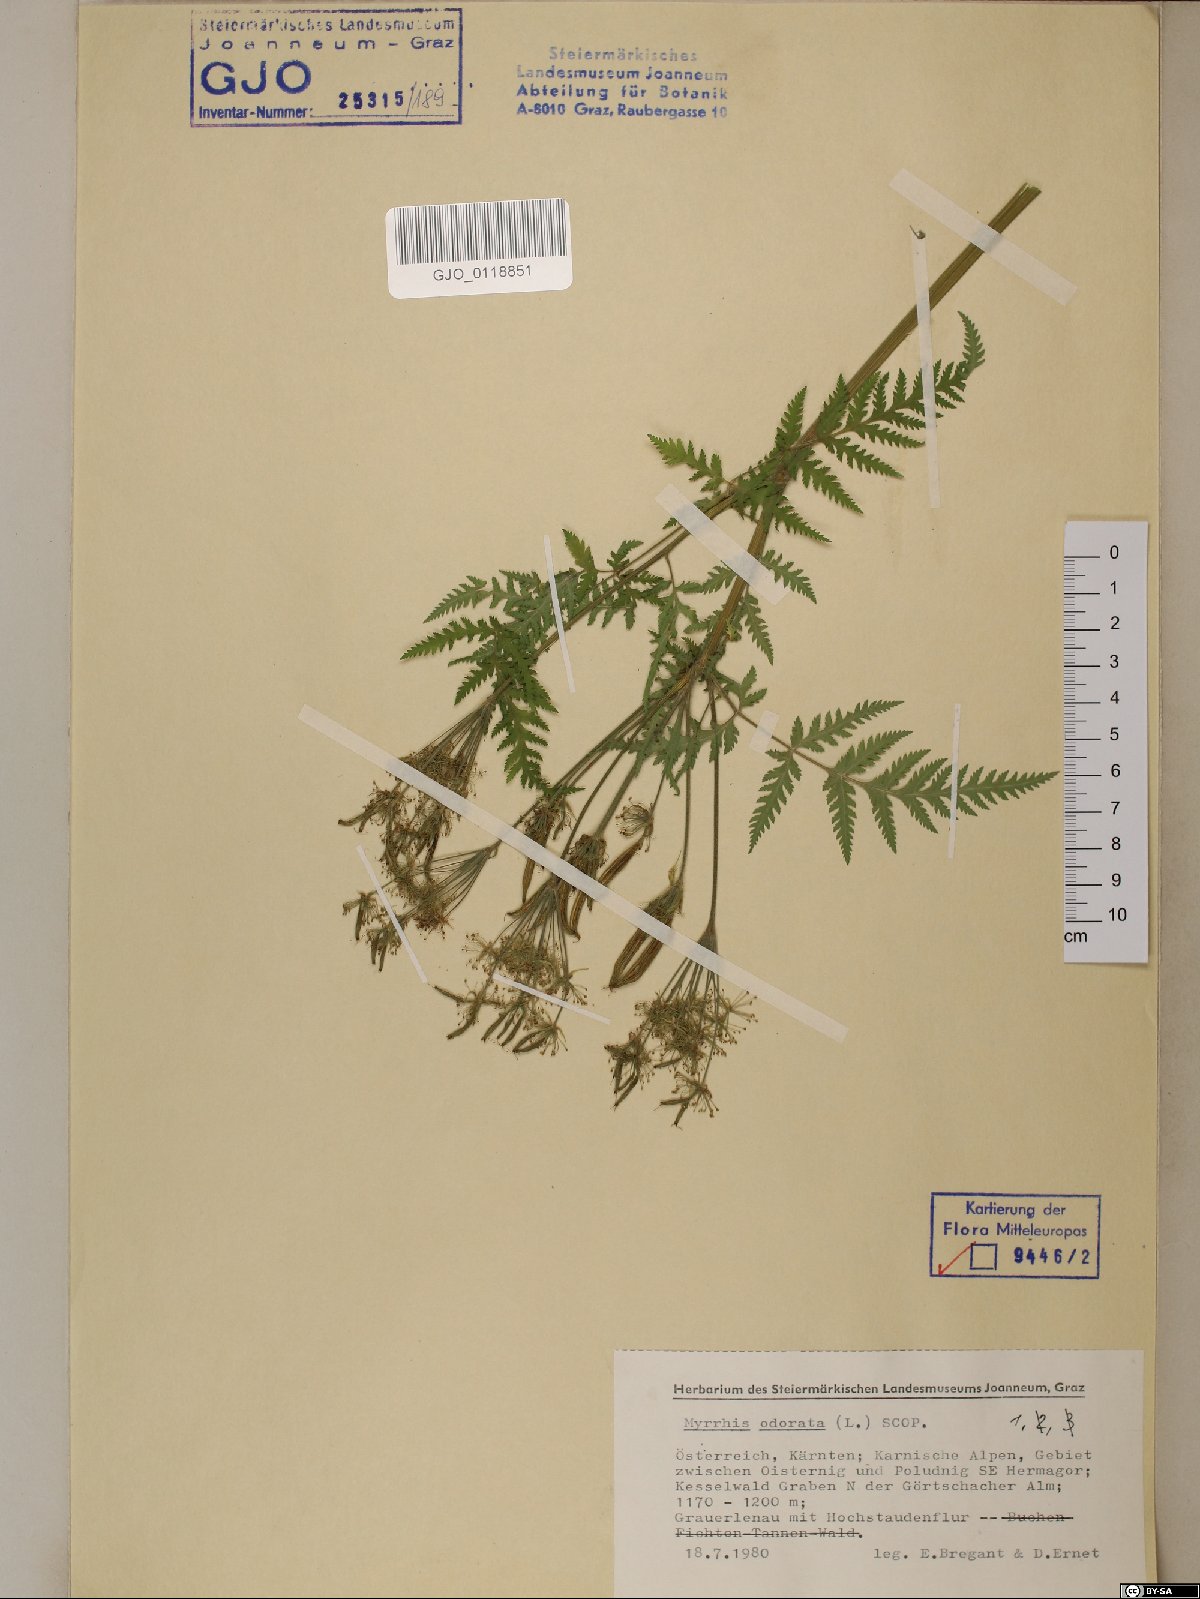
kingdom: Plantae
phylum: Tracheophyta
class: Magnoliopsida
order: Apiales
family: Apiaceae
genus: Myrrhis
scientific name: Myrrhis odorata
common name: Sweet cicely
